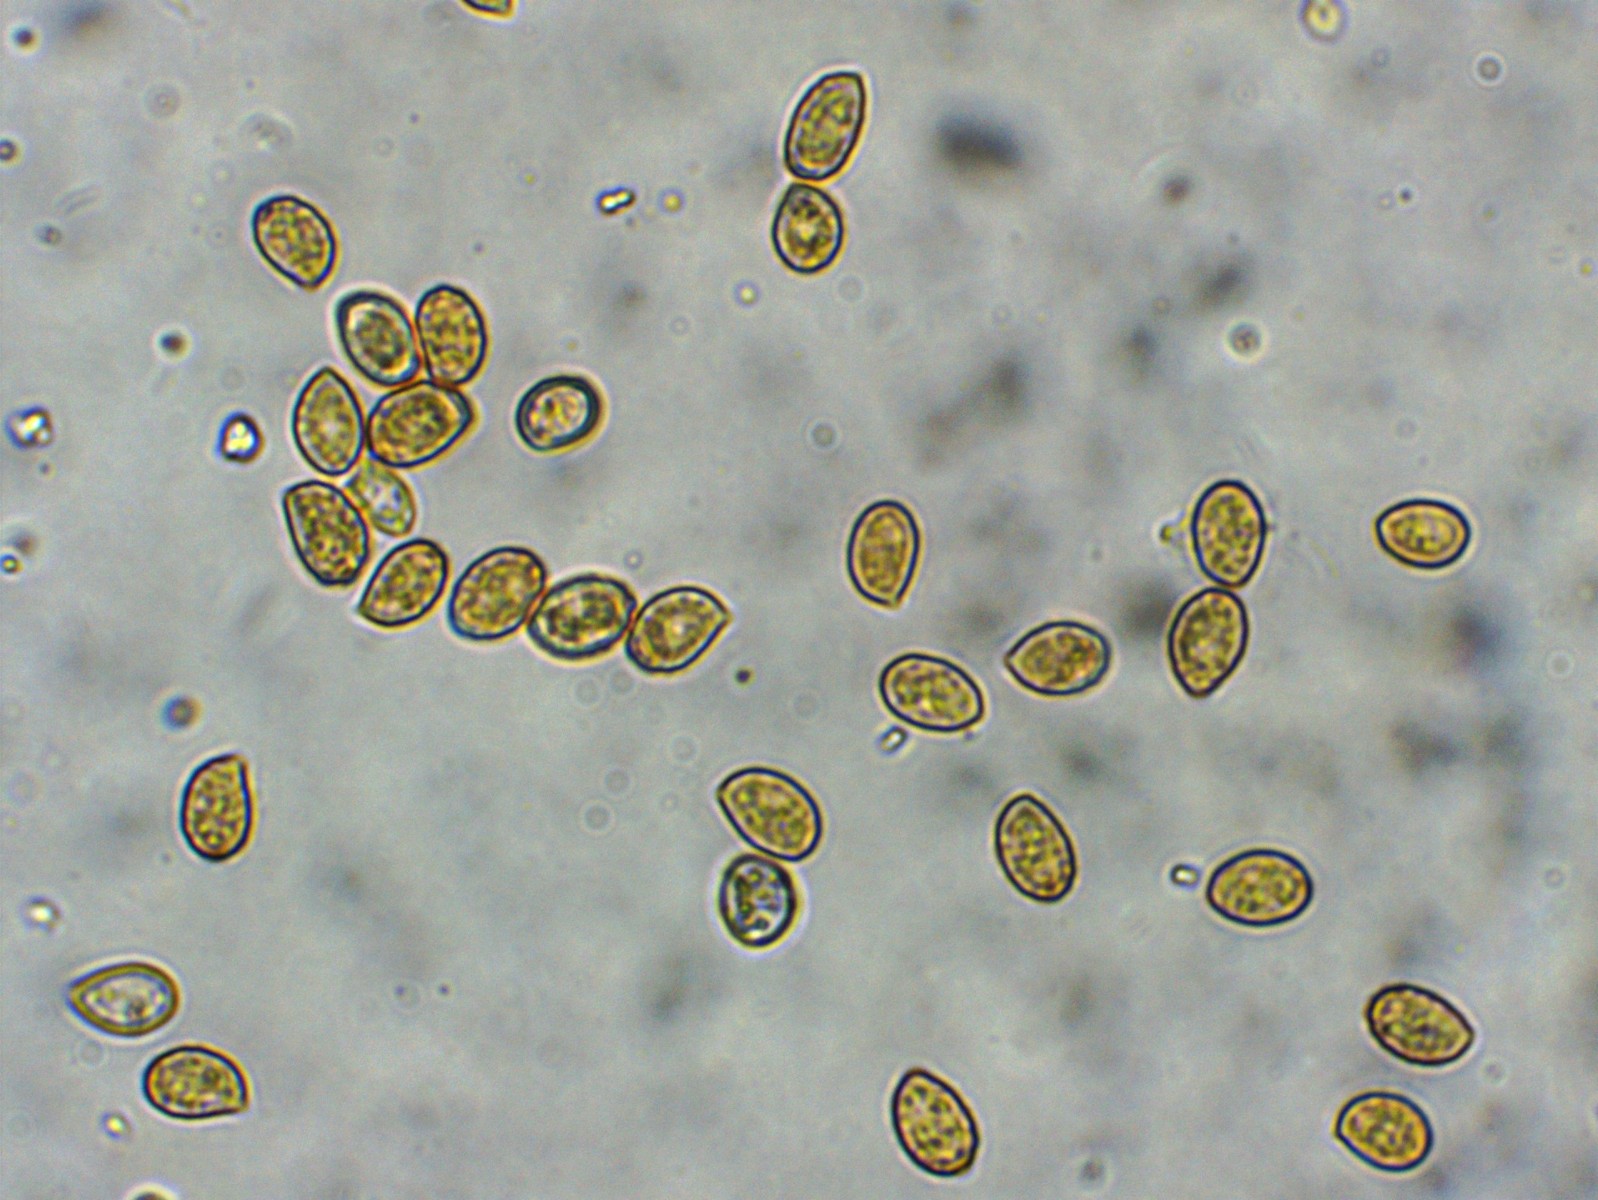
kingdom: Fungi
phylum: Basidiomycota
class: Agaricomycetes
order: Agaricales
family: Cortinariaceae
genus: Cortinarius
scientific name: Cortinarius
